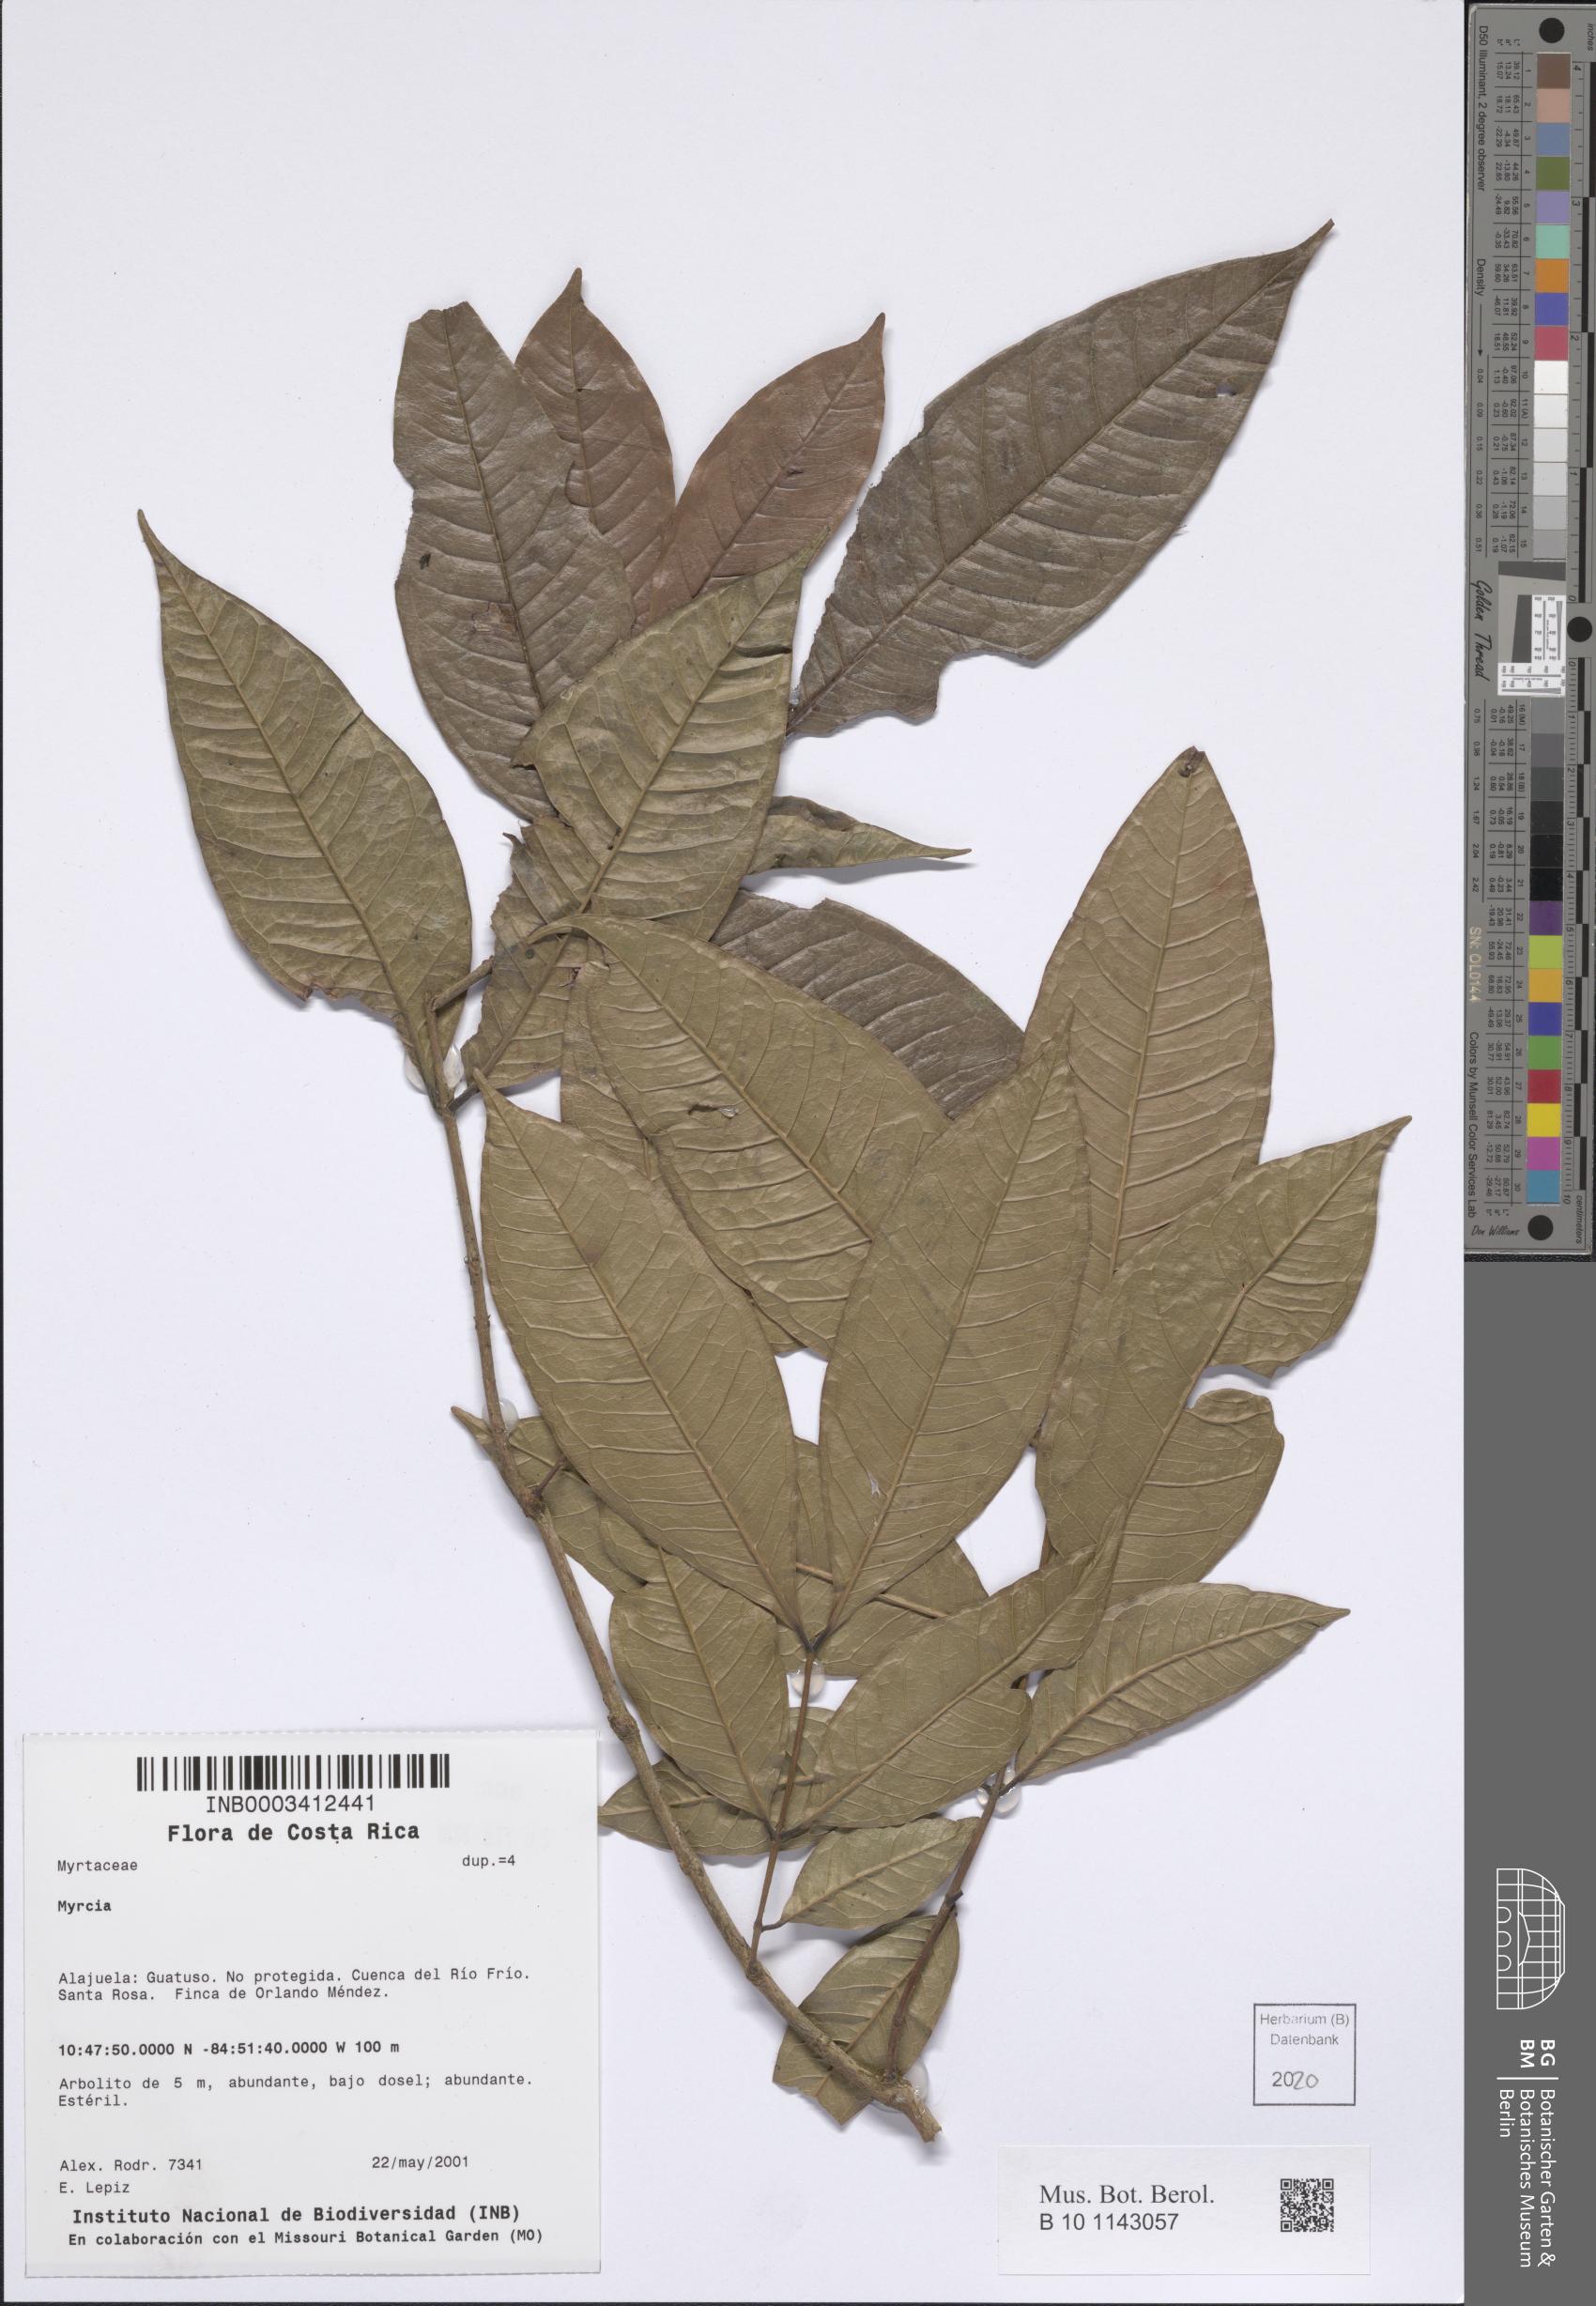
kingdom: Plantae
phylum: Tracheophyta
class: Magnoliopsida
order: Myrtales
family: Myrtaceae
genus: Myrcia
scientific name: Myrcia
